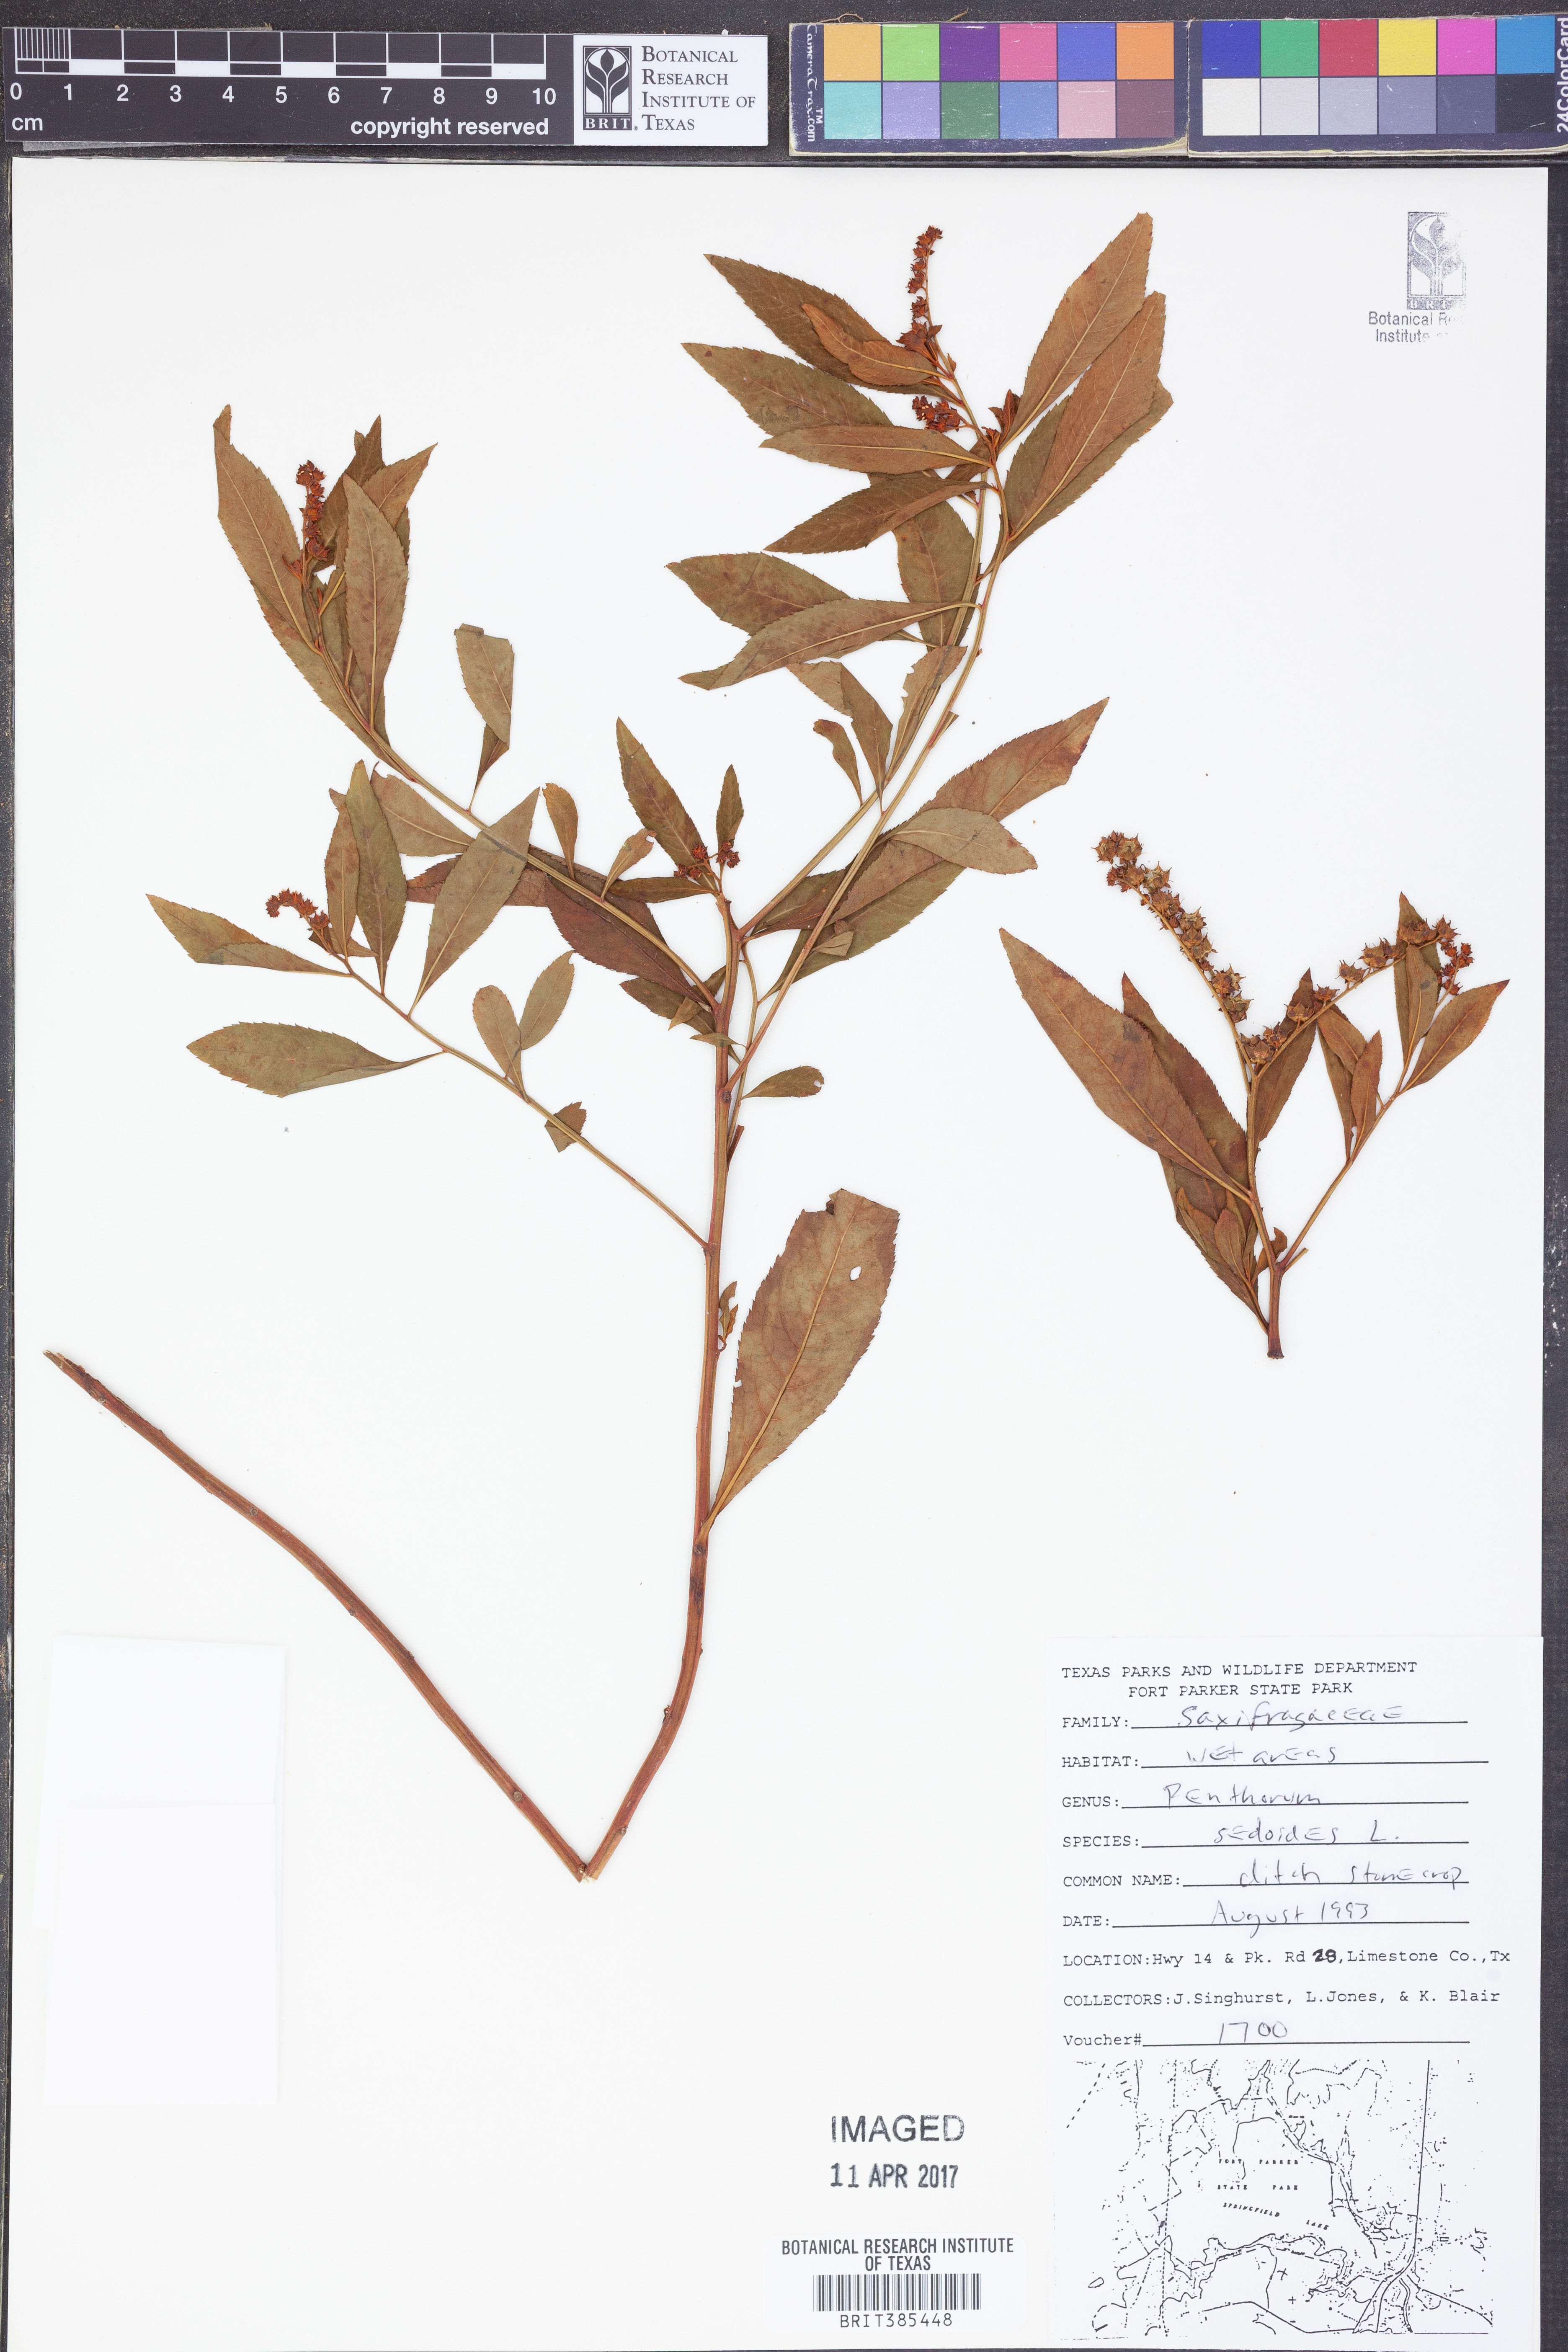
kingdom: Plantae
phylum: Tracheophyta
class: Magnoliopsida
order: Saxifragales
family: Penthoraceae
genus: Penthorum
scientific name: Penthorum sedoides
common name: Ditch stonecrop
